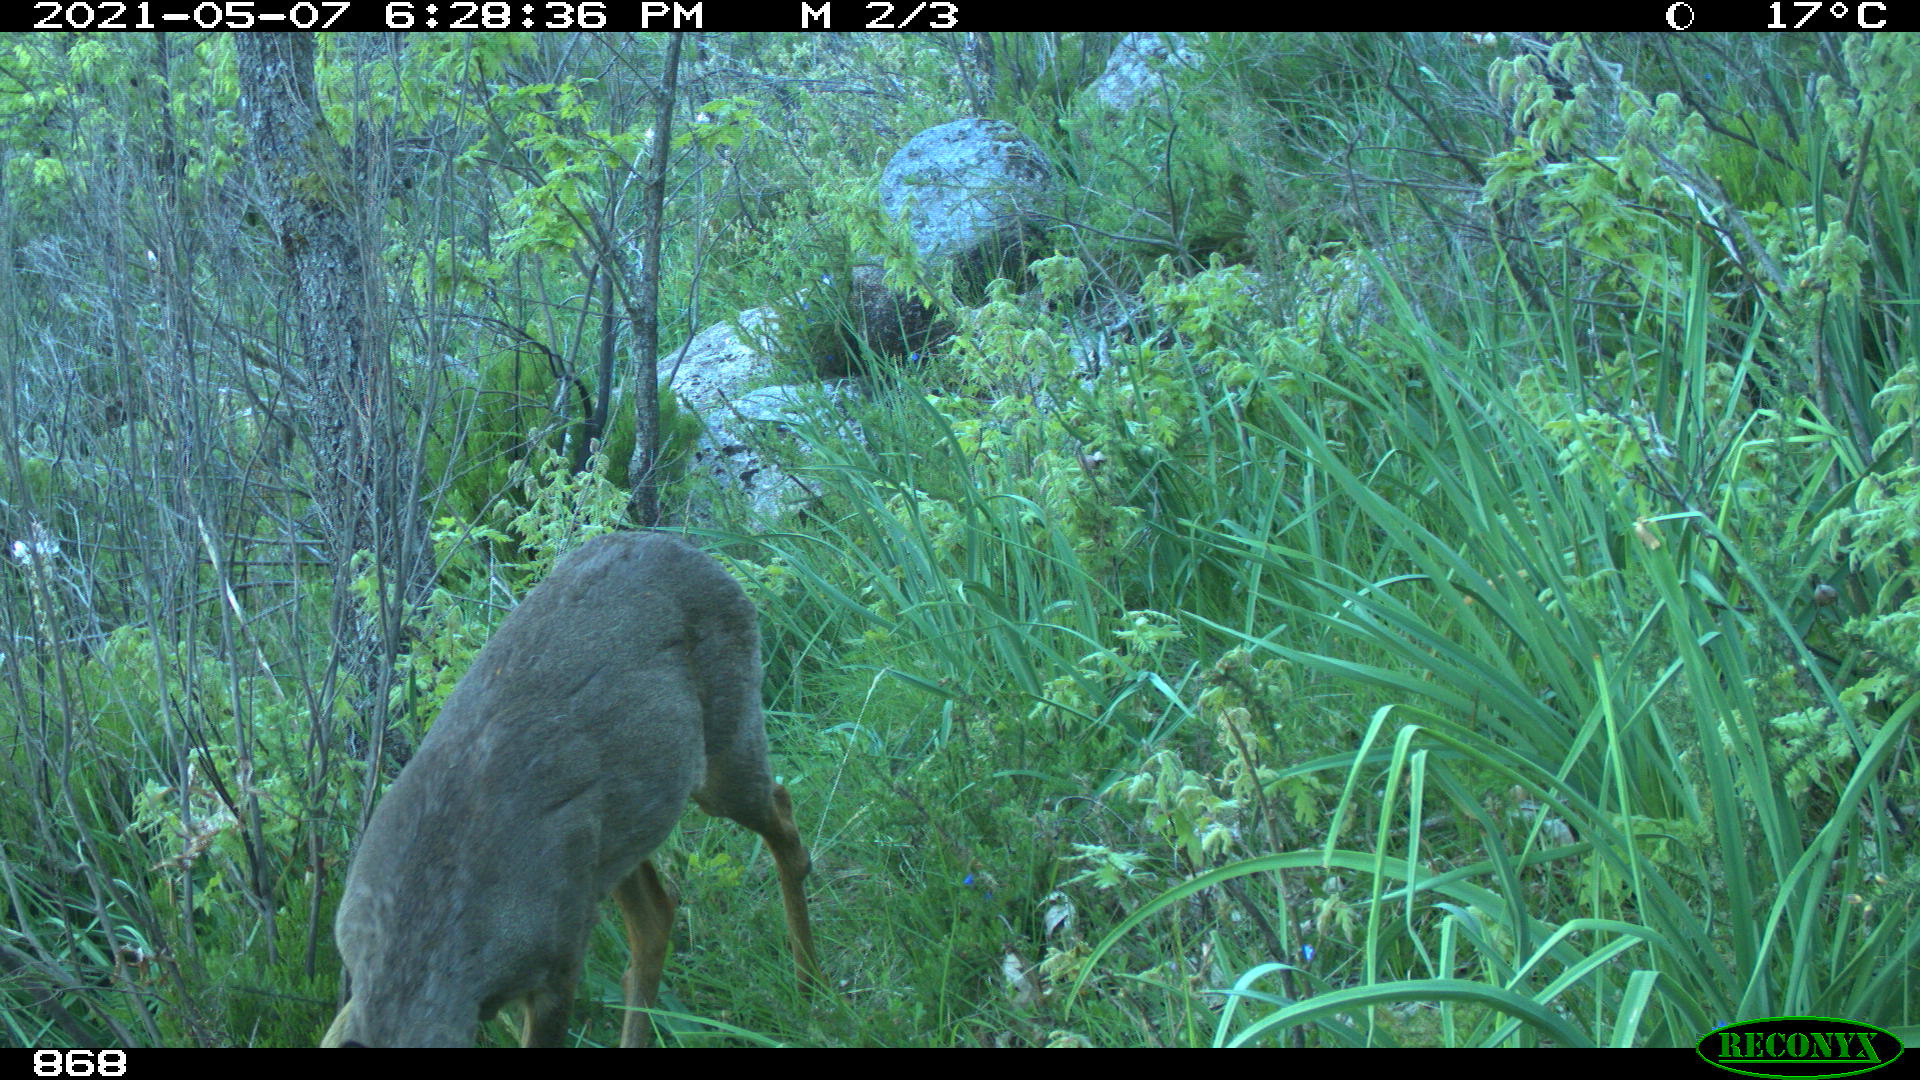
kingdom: Animalia
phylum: Chordata
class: Mammalia
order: Artiodactyla
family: Cervidae
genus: Capreolus
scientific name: Capreolus capreolus
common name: Western roe deer
